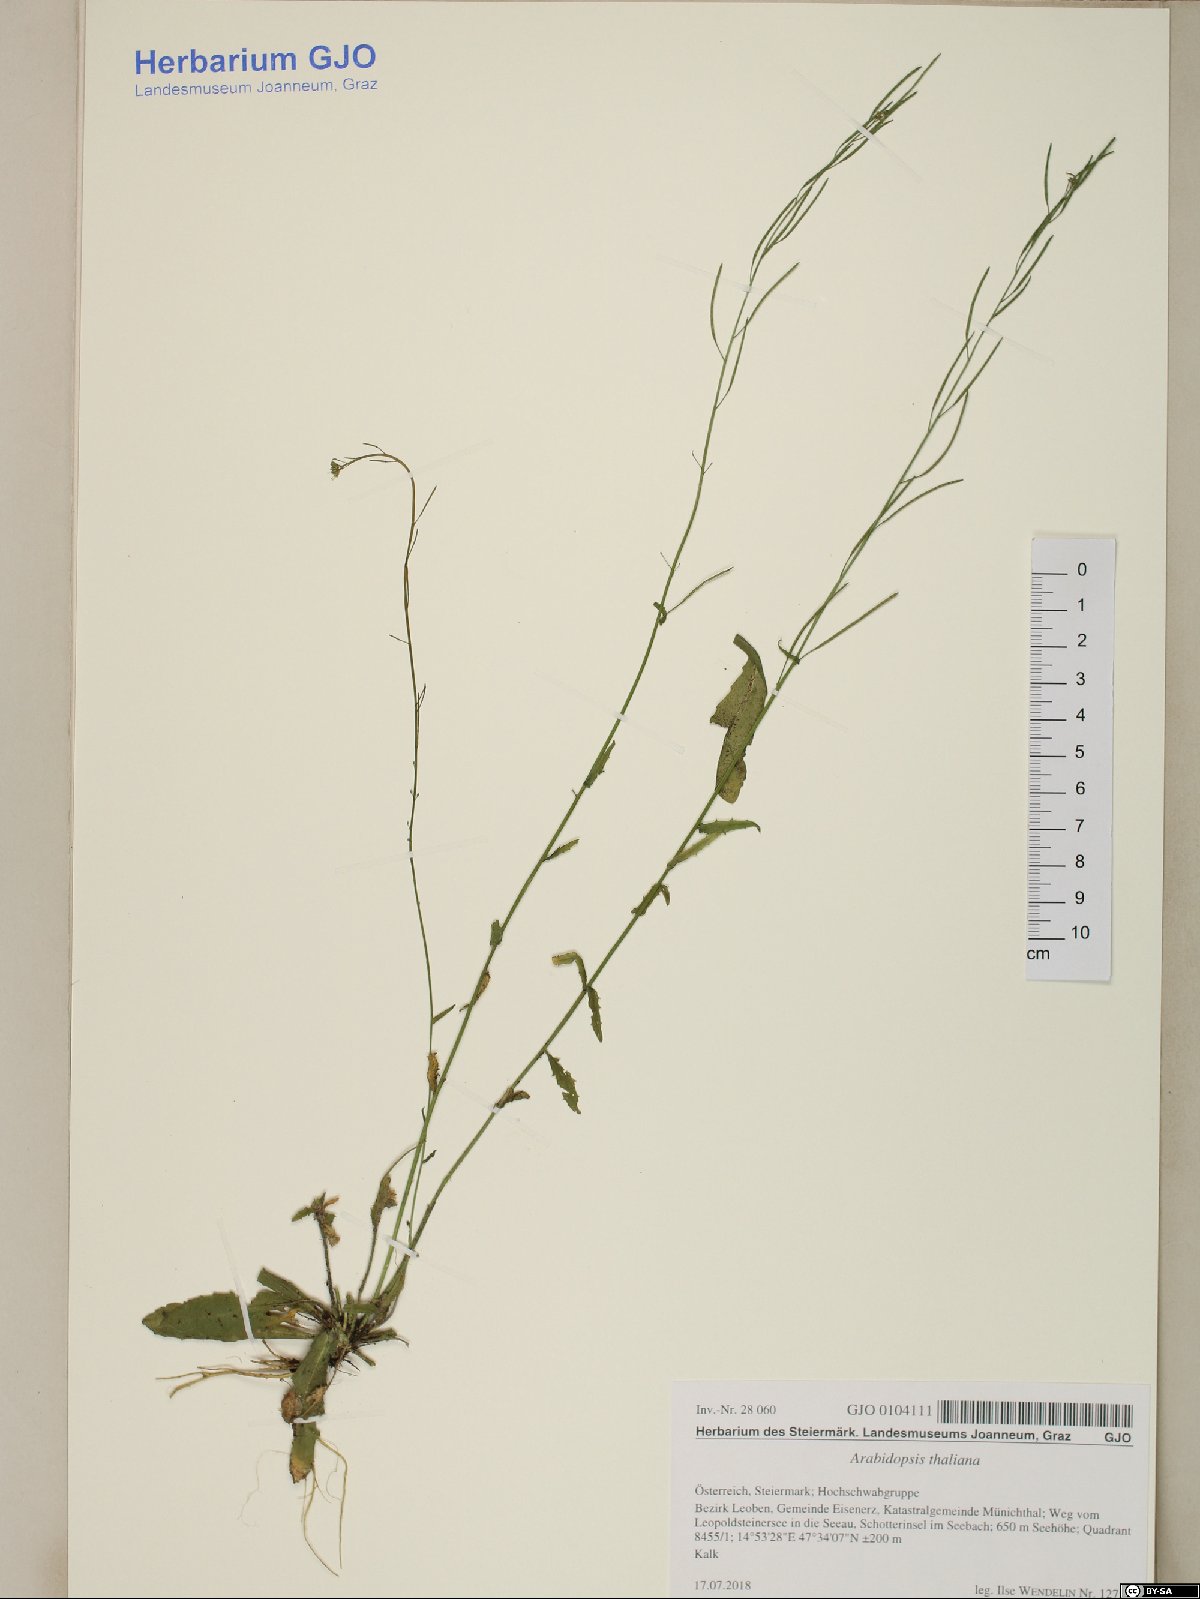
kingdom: Plantae
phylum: Tracheophyta
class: Magnoliopsida
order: Brassicales
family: Brassicaceae
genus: Arabidopsis
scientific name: Arabidopsis thaliana
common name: Thale cress
